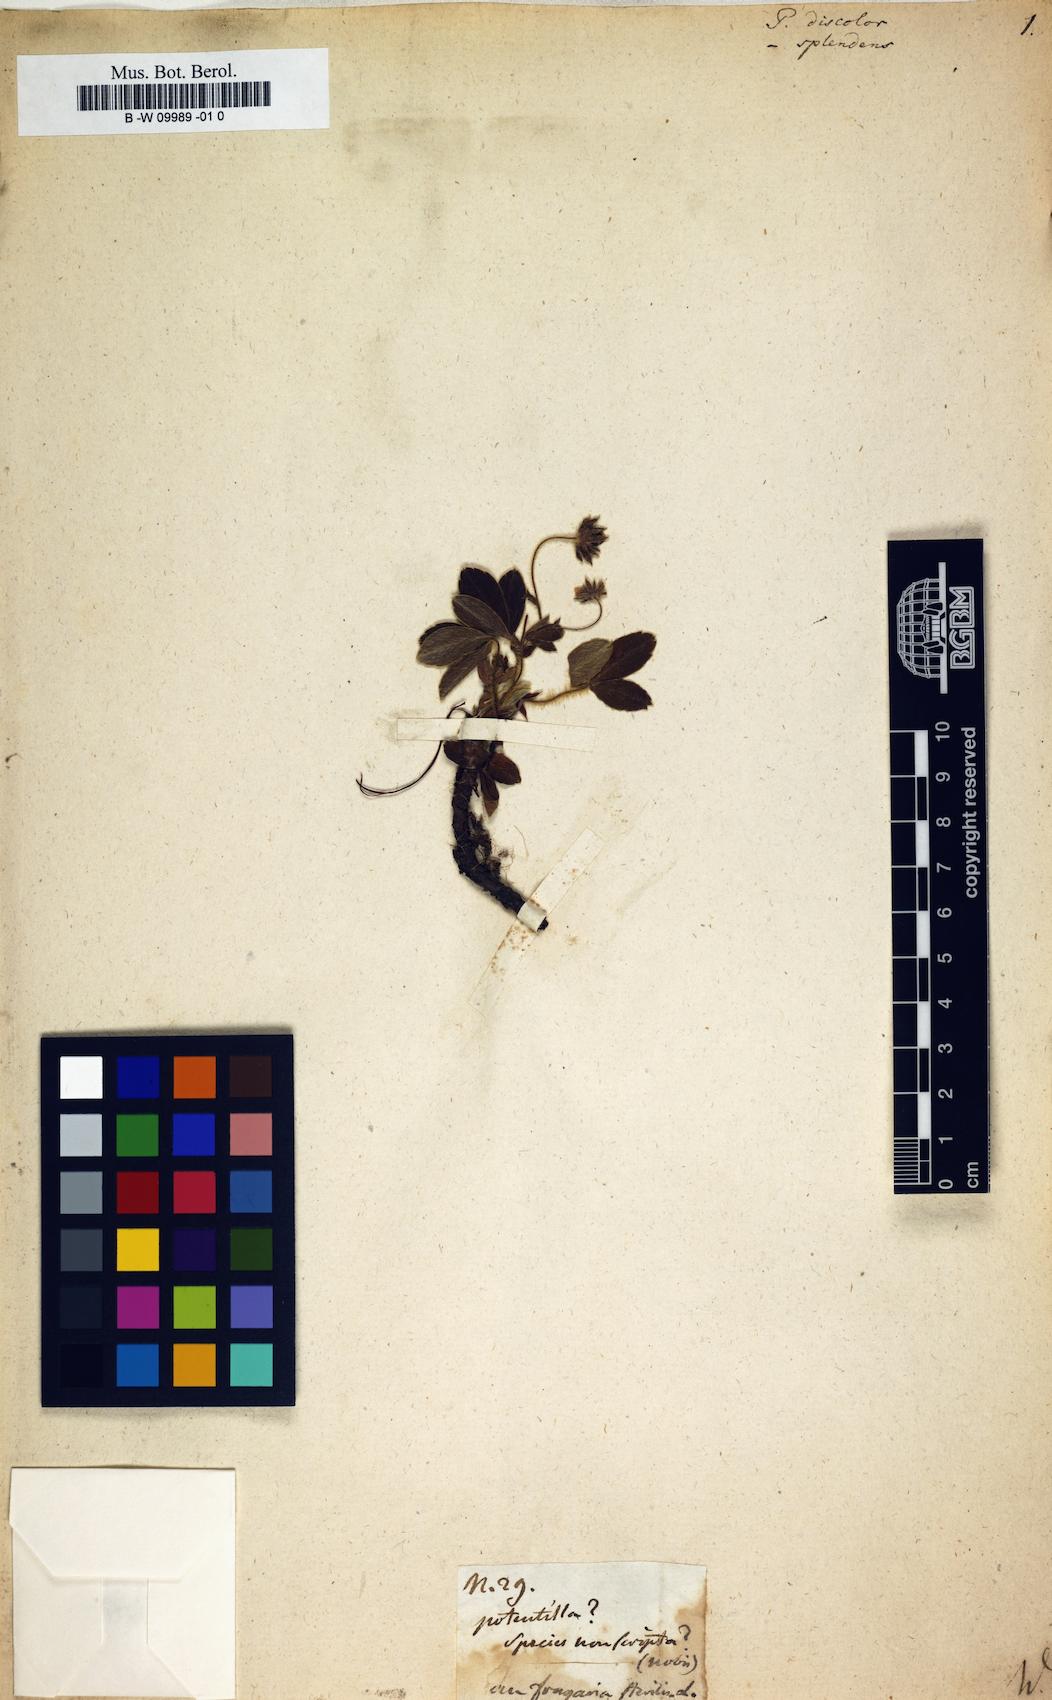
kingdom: Plantae
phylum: Tracheophyta
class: Magnoliopsida
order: Rosales
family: Rosaceae
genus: Potentilla
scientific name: Potentilla discolor
